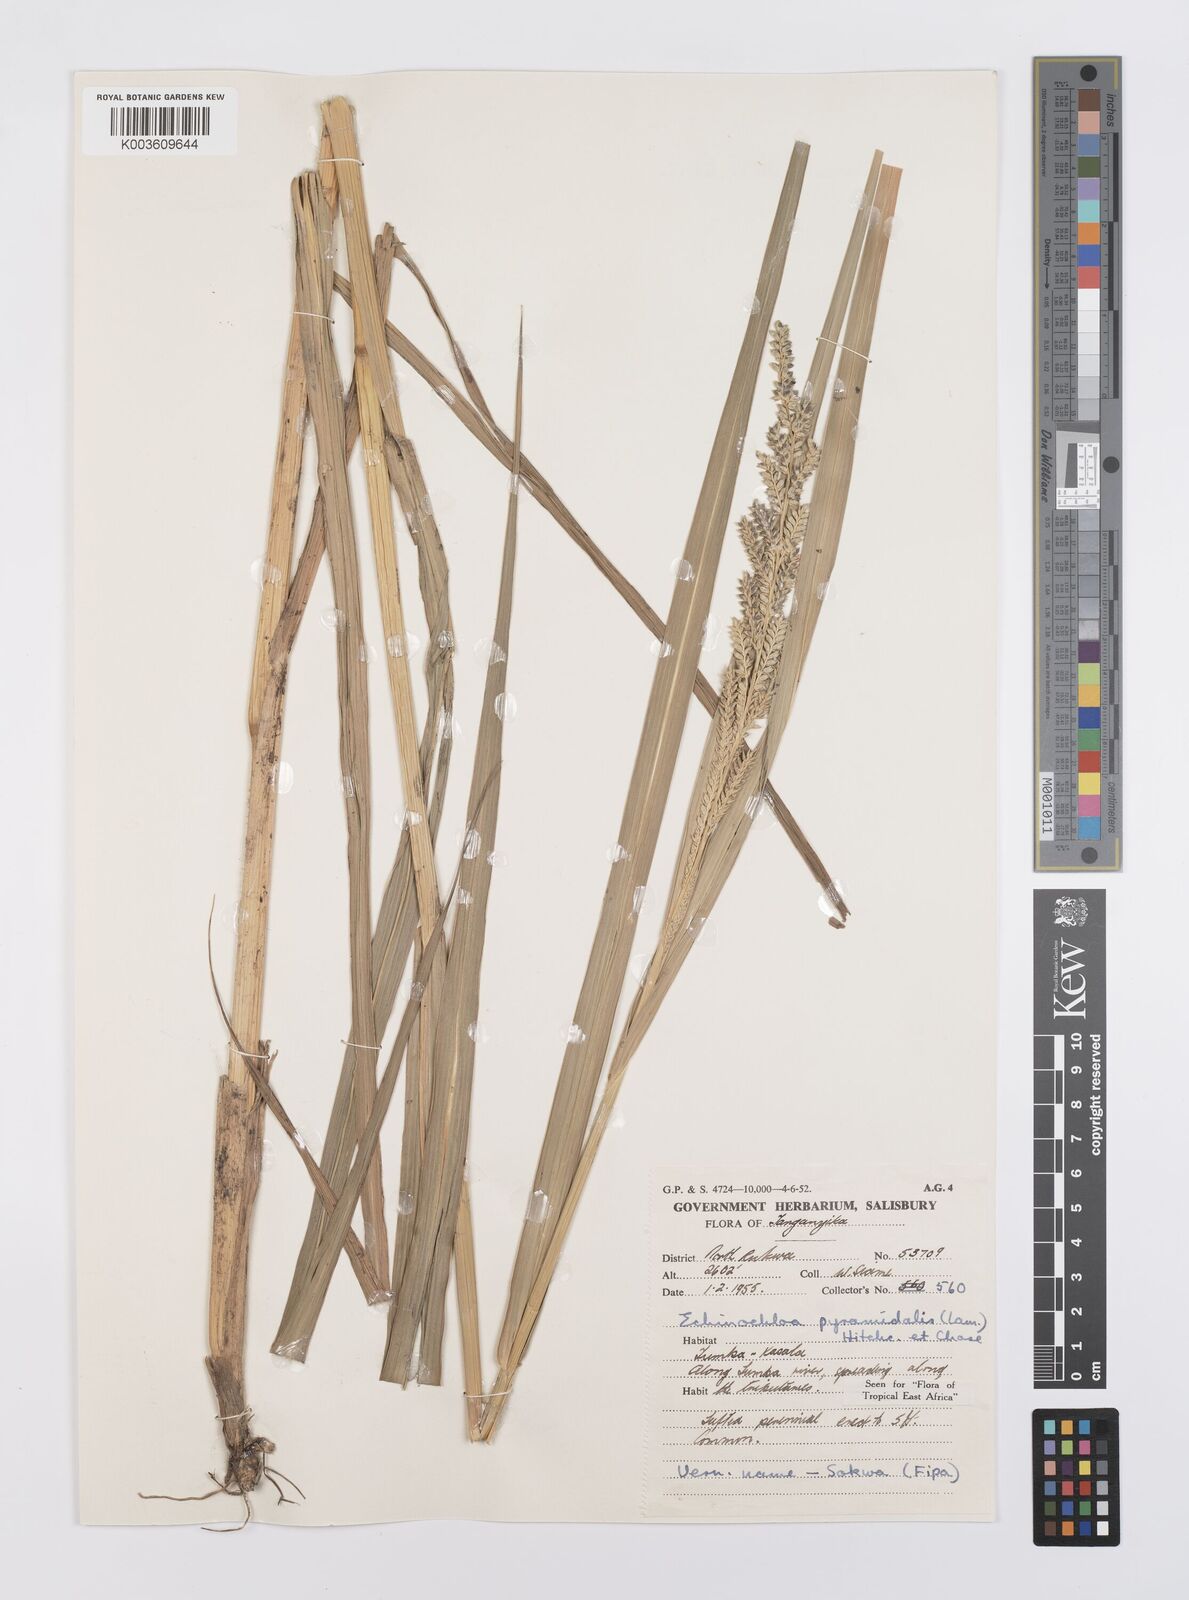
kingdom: Plantae
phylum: Tracheophyta
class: Liliopsida
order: Poales
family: Poaceae
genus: Echinochloa
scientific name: Echinochloa pyramidalis
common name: Antelope grass
